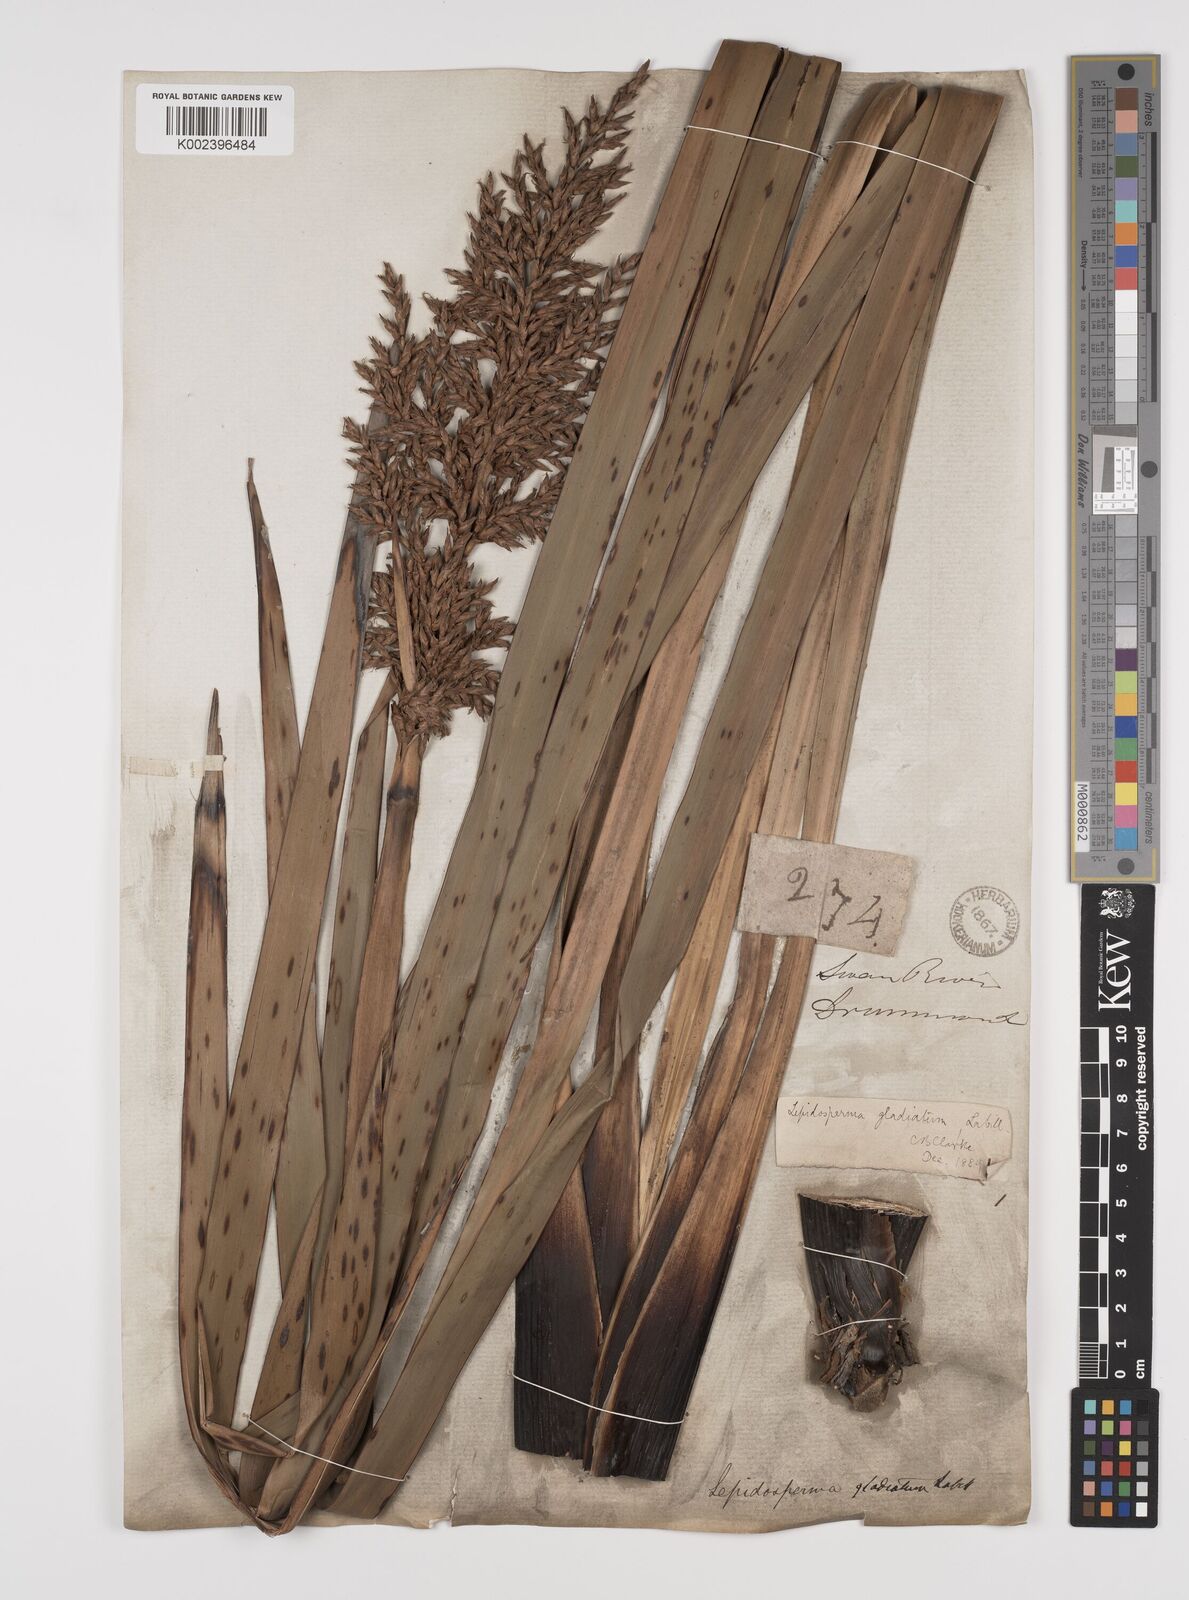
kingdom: Plantae
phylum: Tracheophyta
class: Liliopsida
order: Poales
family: Cyperaceae
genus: Lepidosperma
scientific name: Lepidosperma gladiatum
